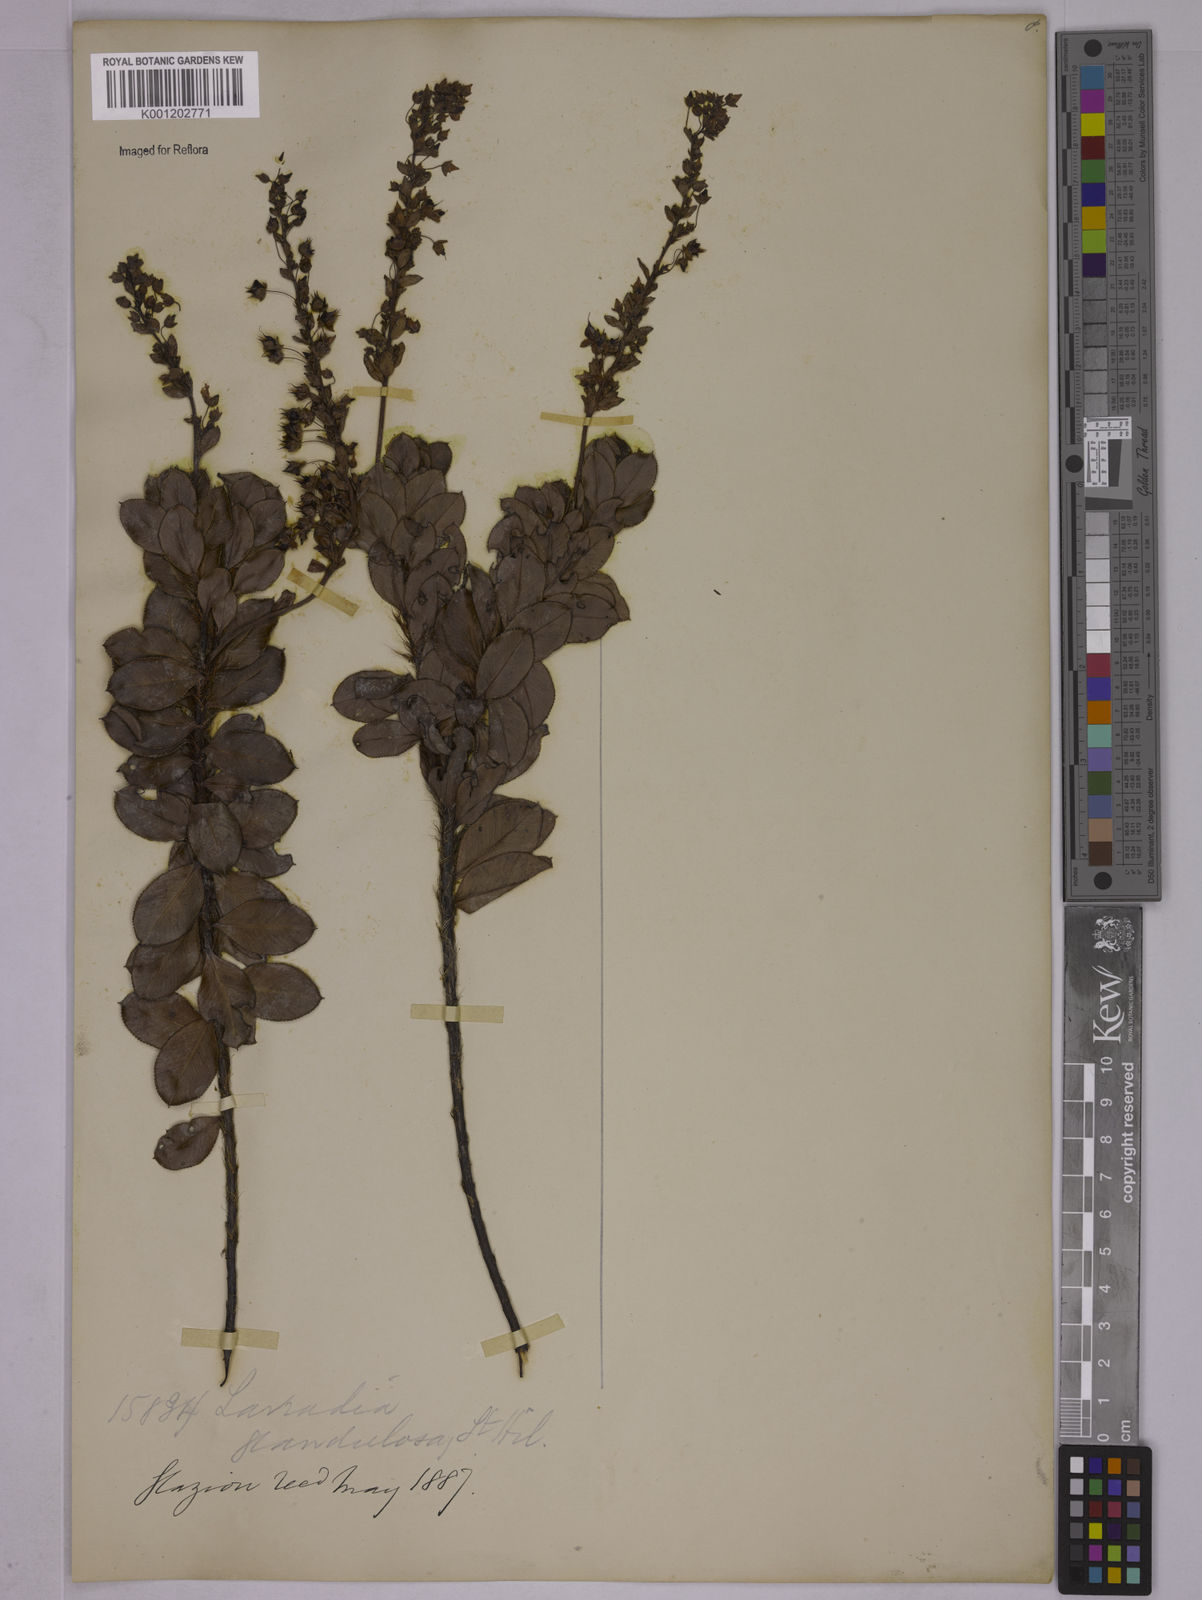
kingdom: Plantae
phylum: Tracheophyta
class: Magnoliopsida
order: Malpighiales
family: Ochnaceae
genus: Sauvagesia
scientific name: Sauvagesia elegantissima
